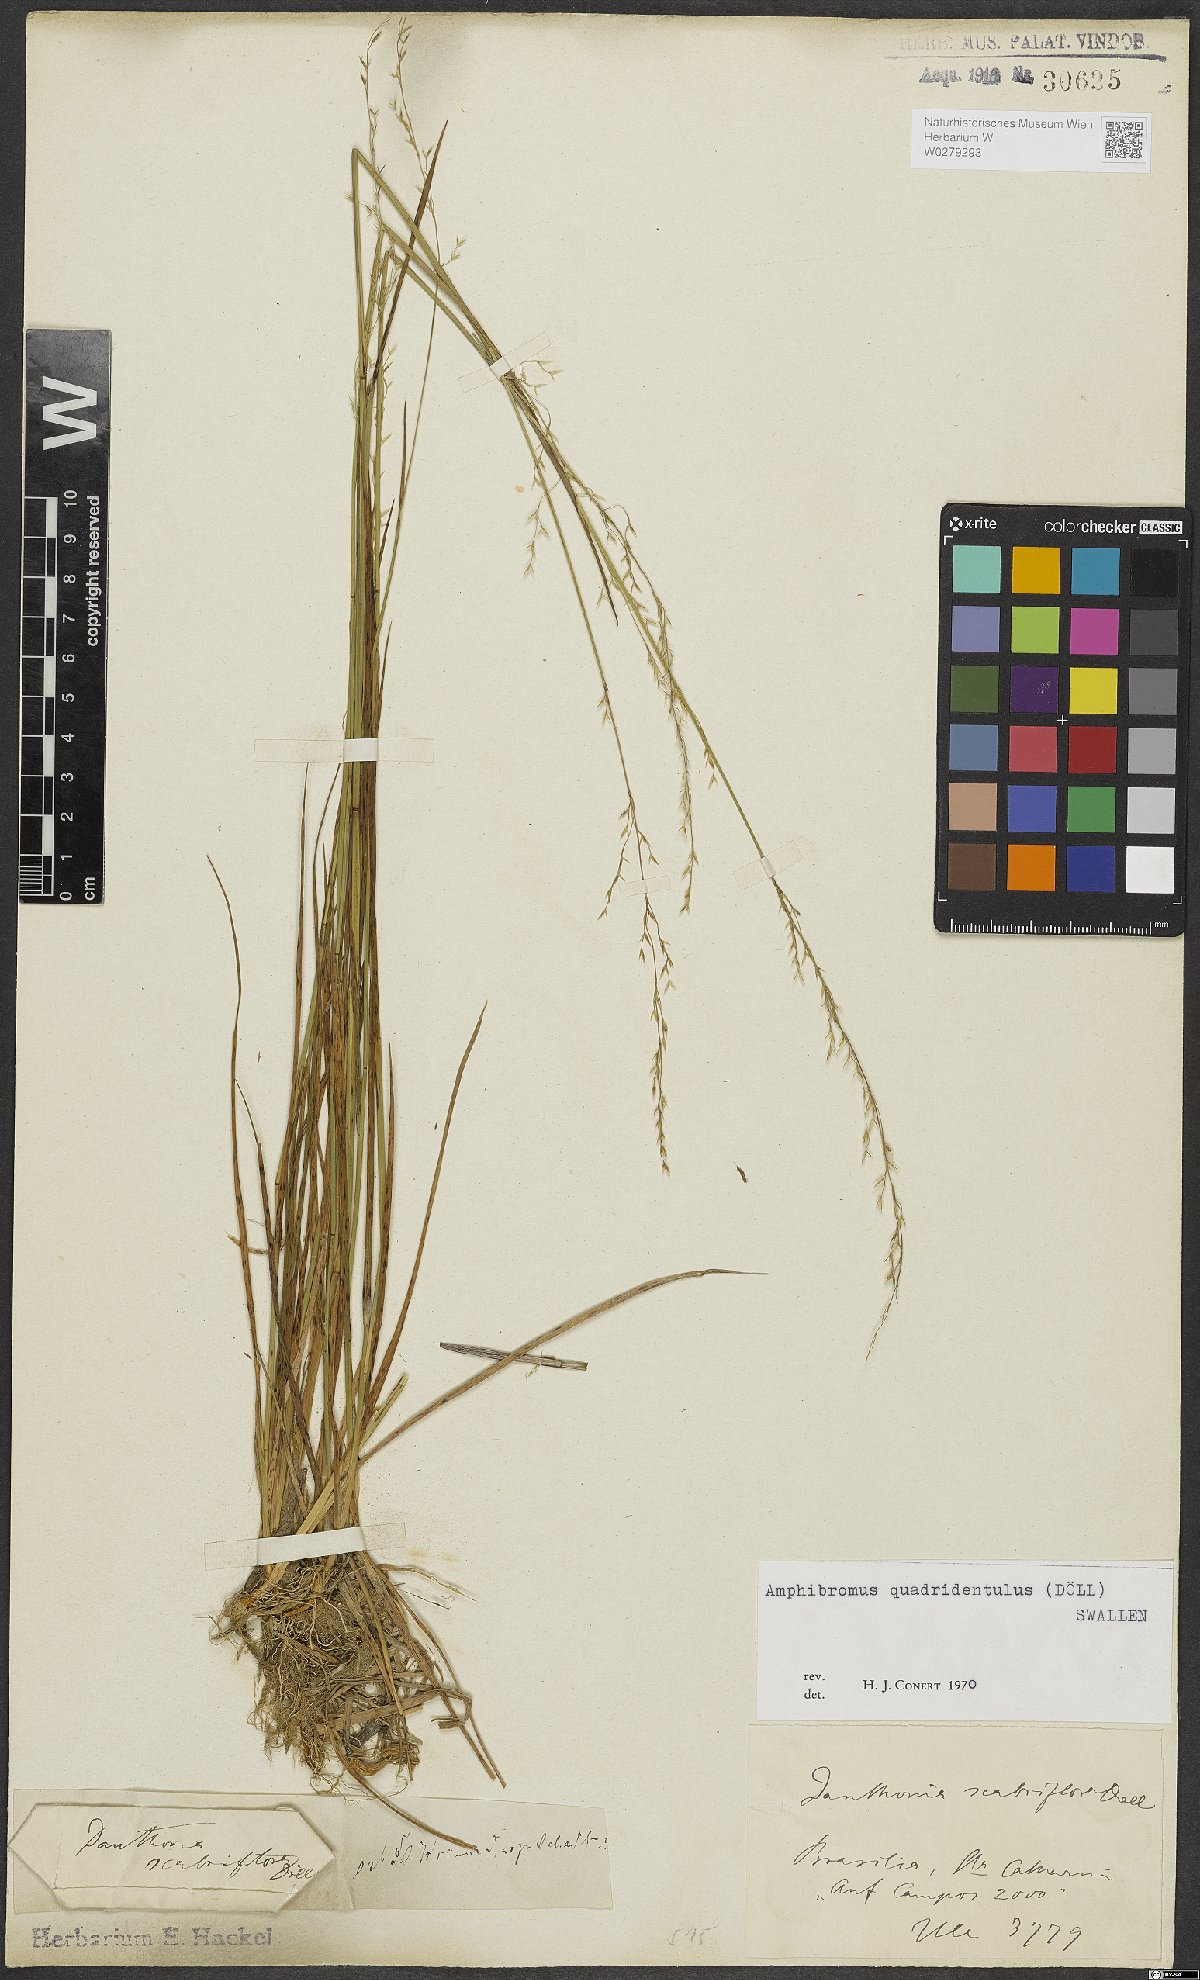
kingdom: Plantae
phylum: Tracheophyta
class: Liliopsida
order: Poales
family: Poaceae
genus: Amphibromus
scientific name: Amphibromus quadridentulus
